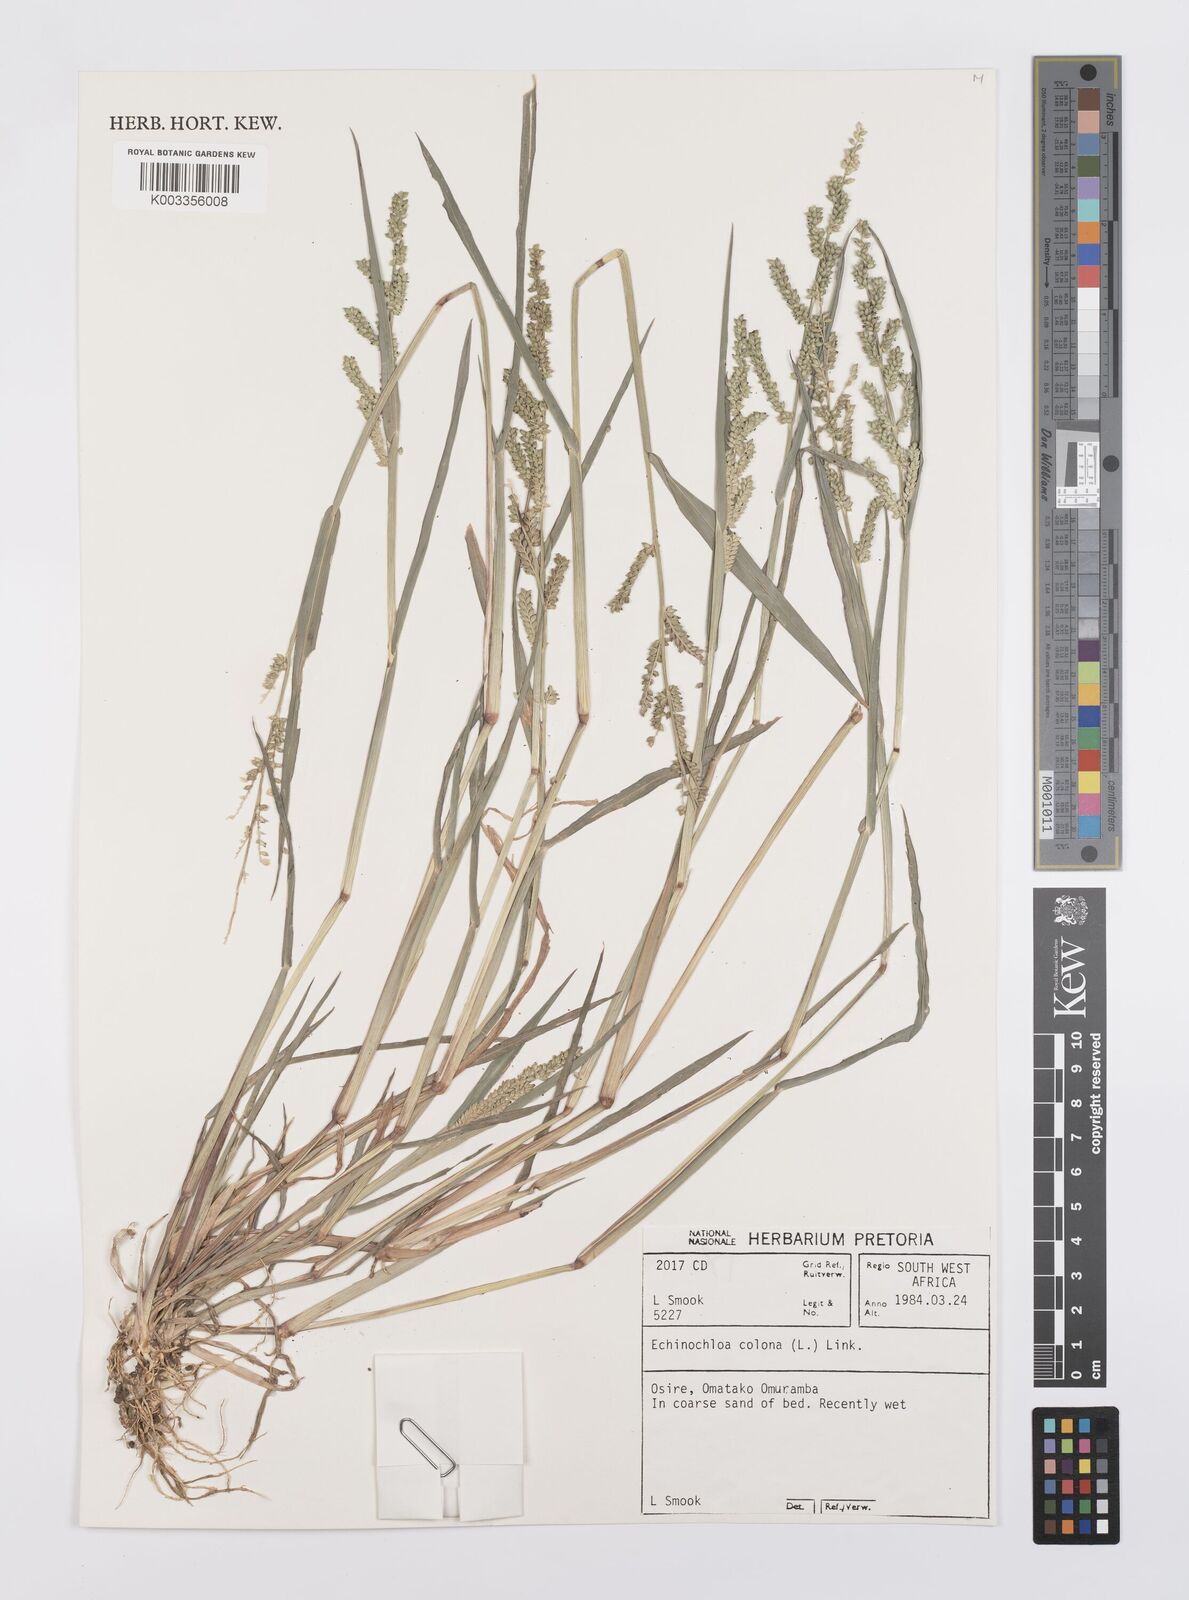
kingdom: Plantae
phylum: Tracheophyta
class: Liliopsida
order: Poales
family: Poaceae
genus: Echinochloa
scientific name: Echinochloa colonum
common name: Jungle rice
